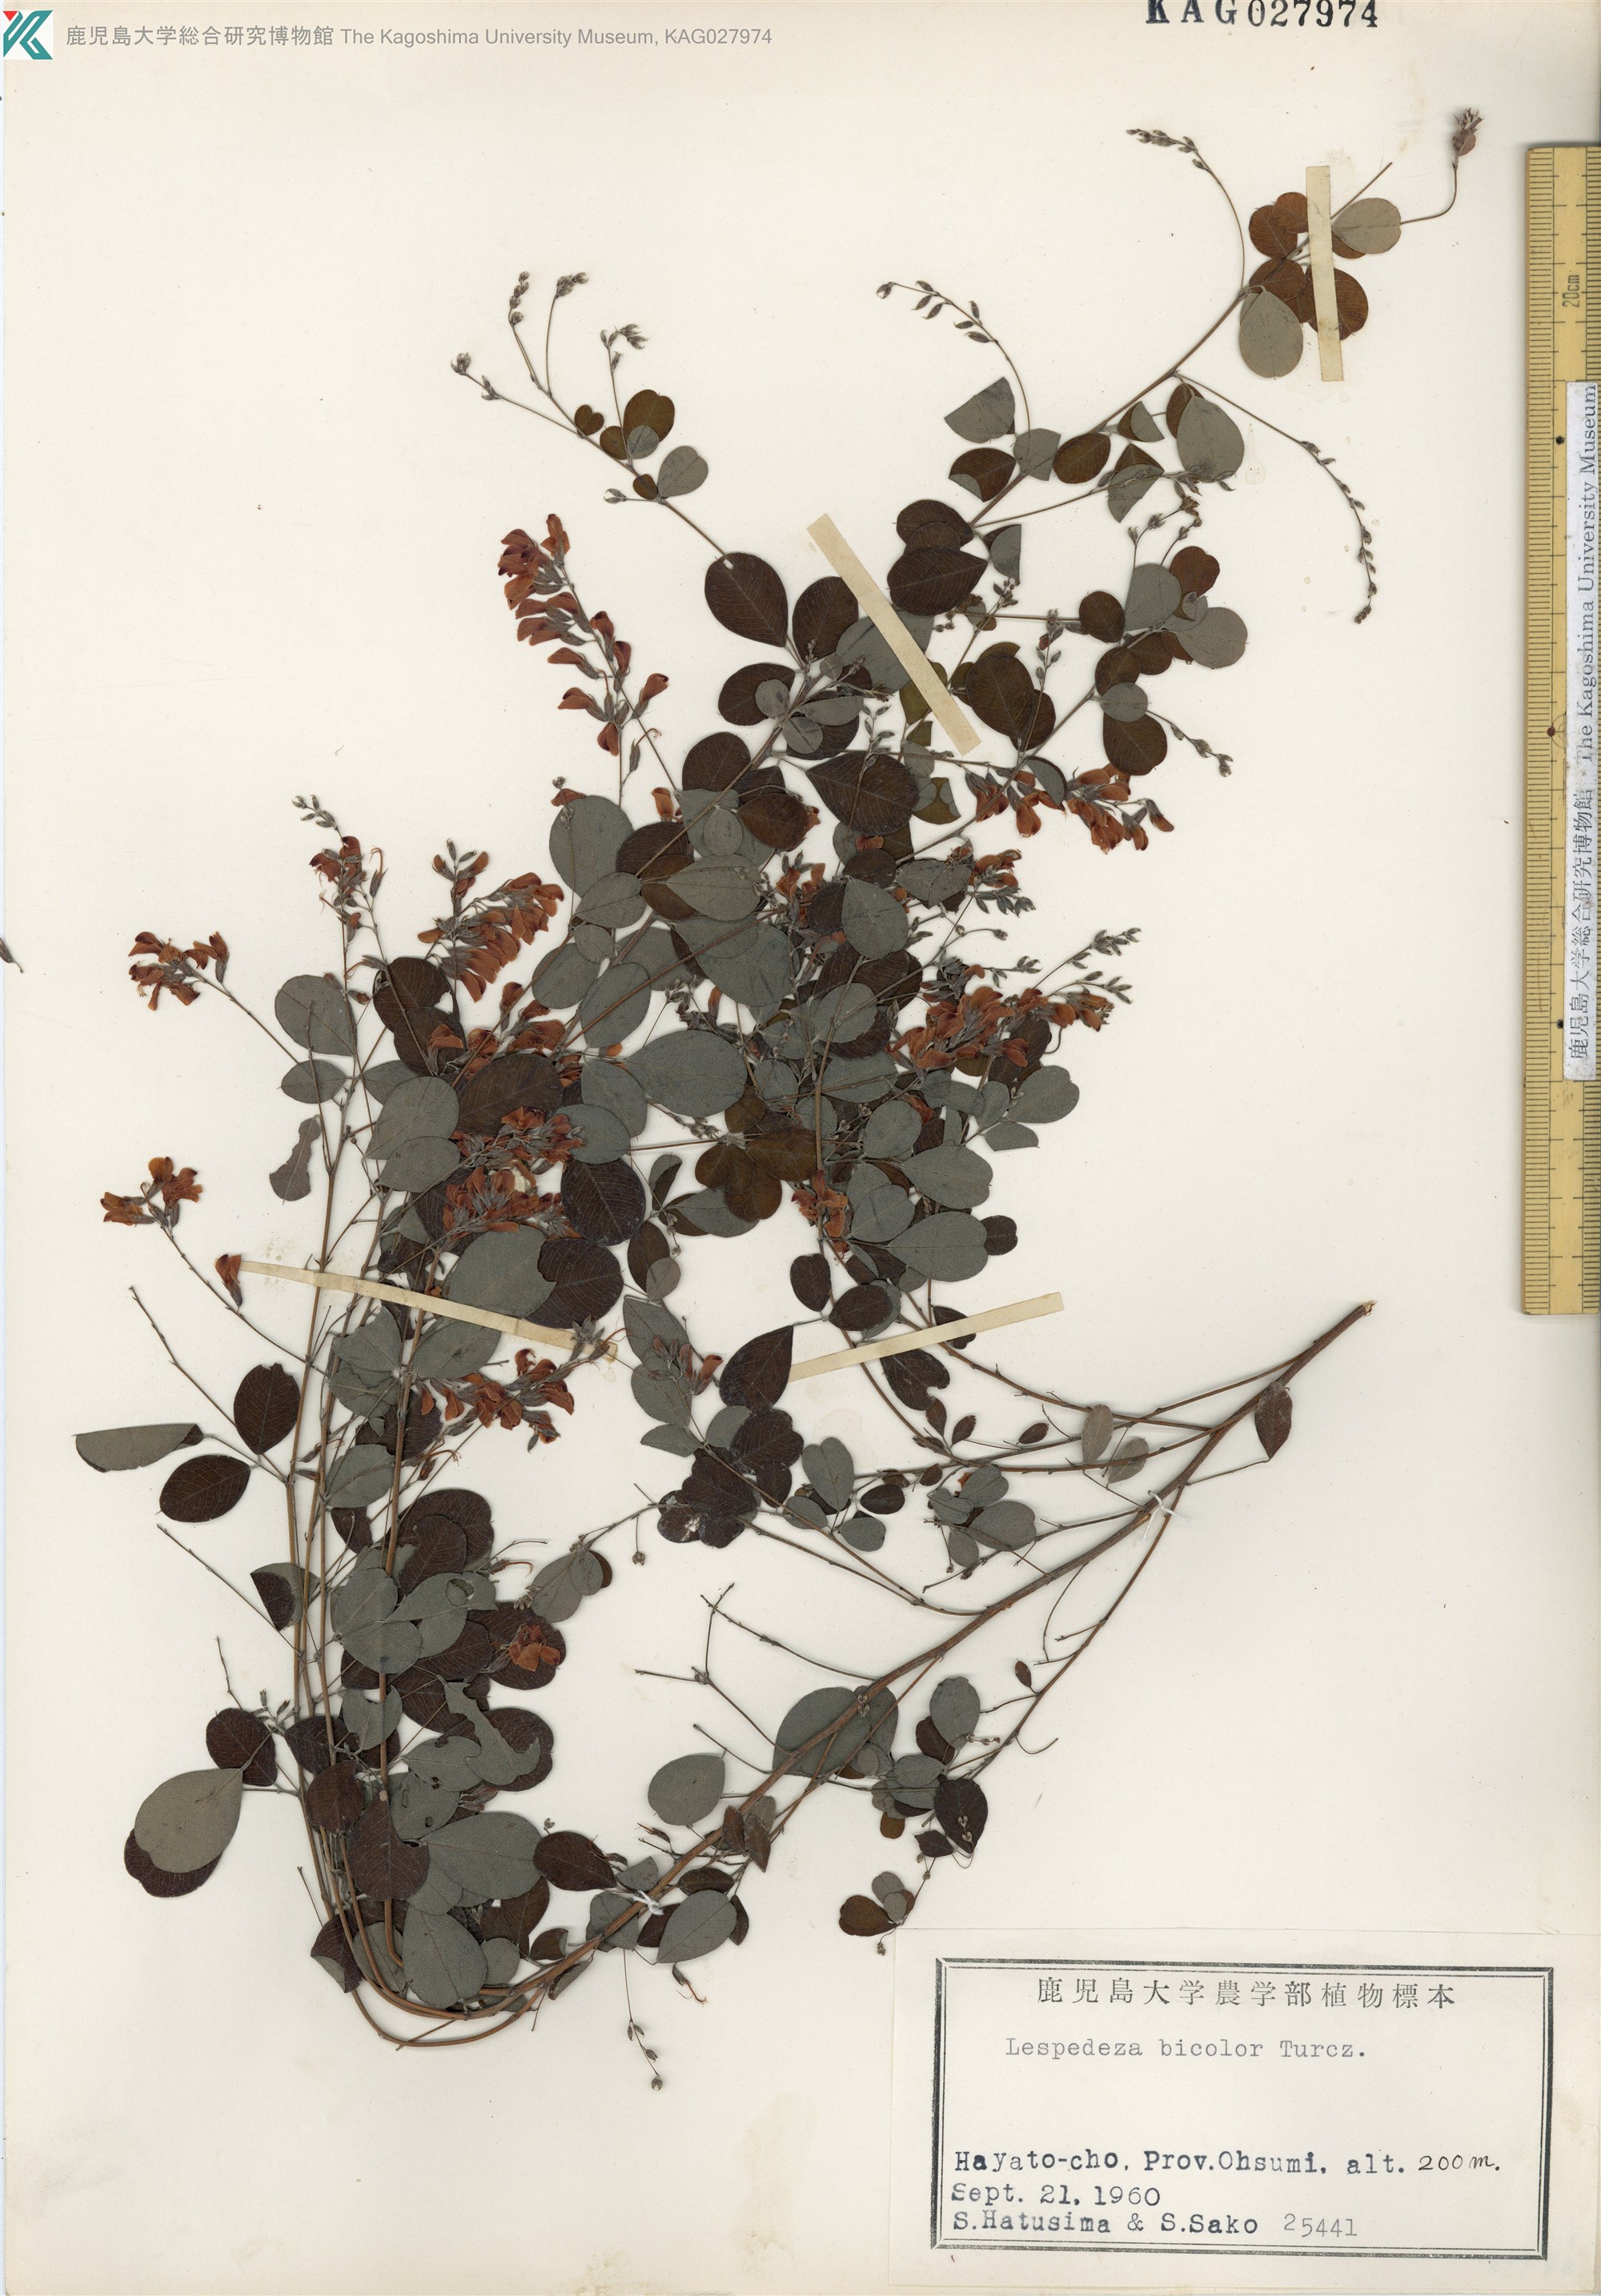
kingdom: Plantae
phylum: Tracheophyta
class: Magnoliopsida
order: Fabales
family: Fabaceae
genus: Lespedeza
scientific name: Lespedeza bicolor
